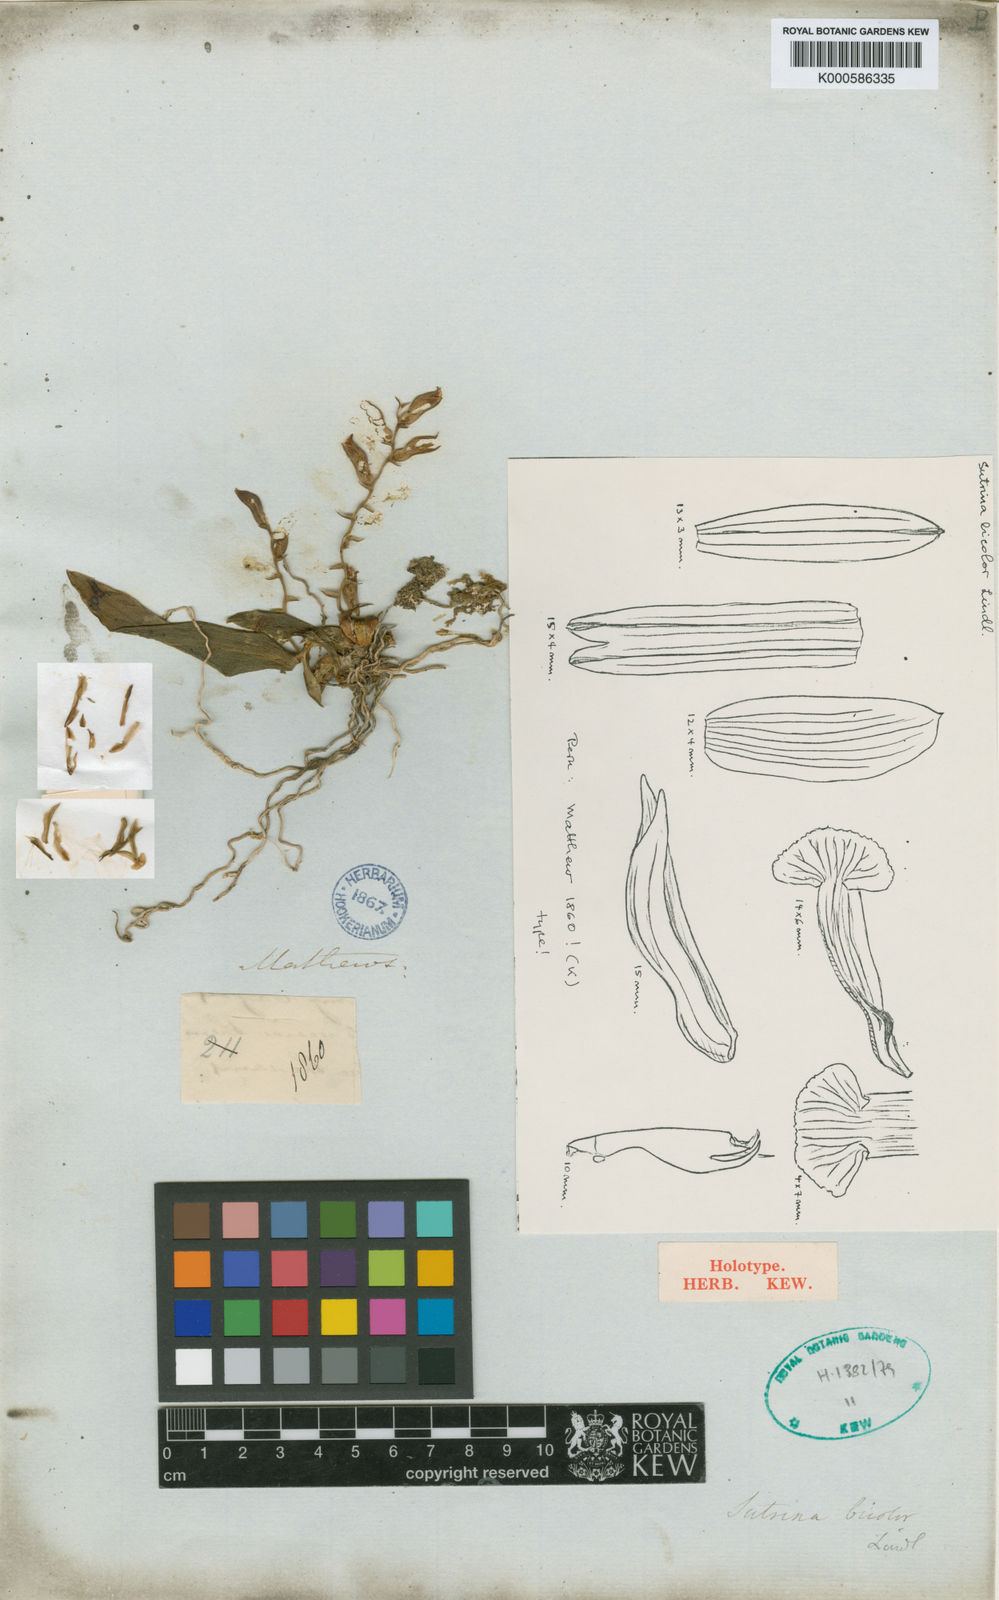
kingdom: Plantae
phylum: Tracheophyta
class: Liliopsida
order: Asparagales
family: Orchidaceae
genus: Sutrina
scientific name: Sutrina bicolor
